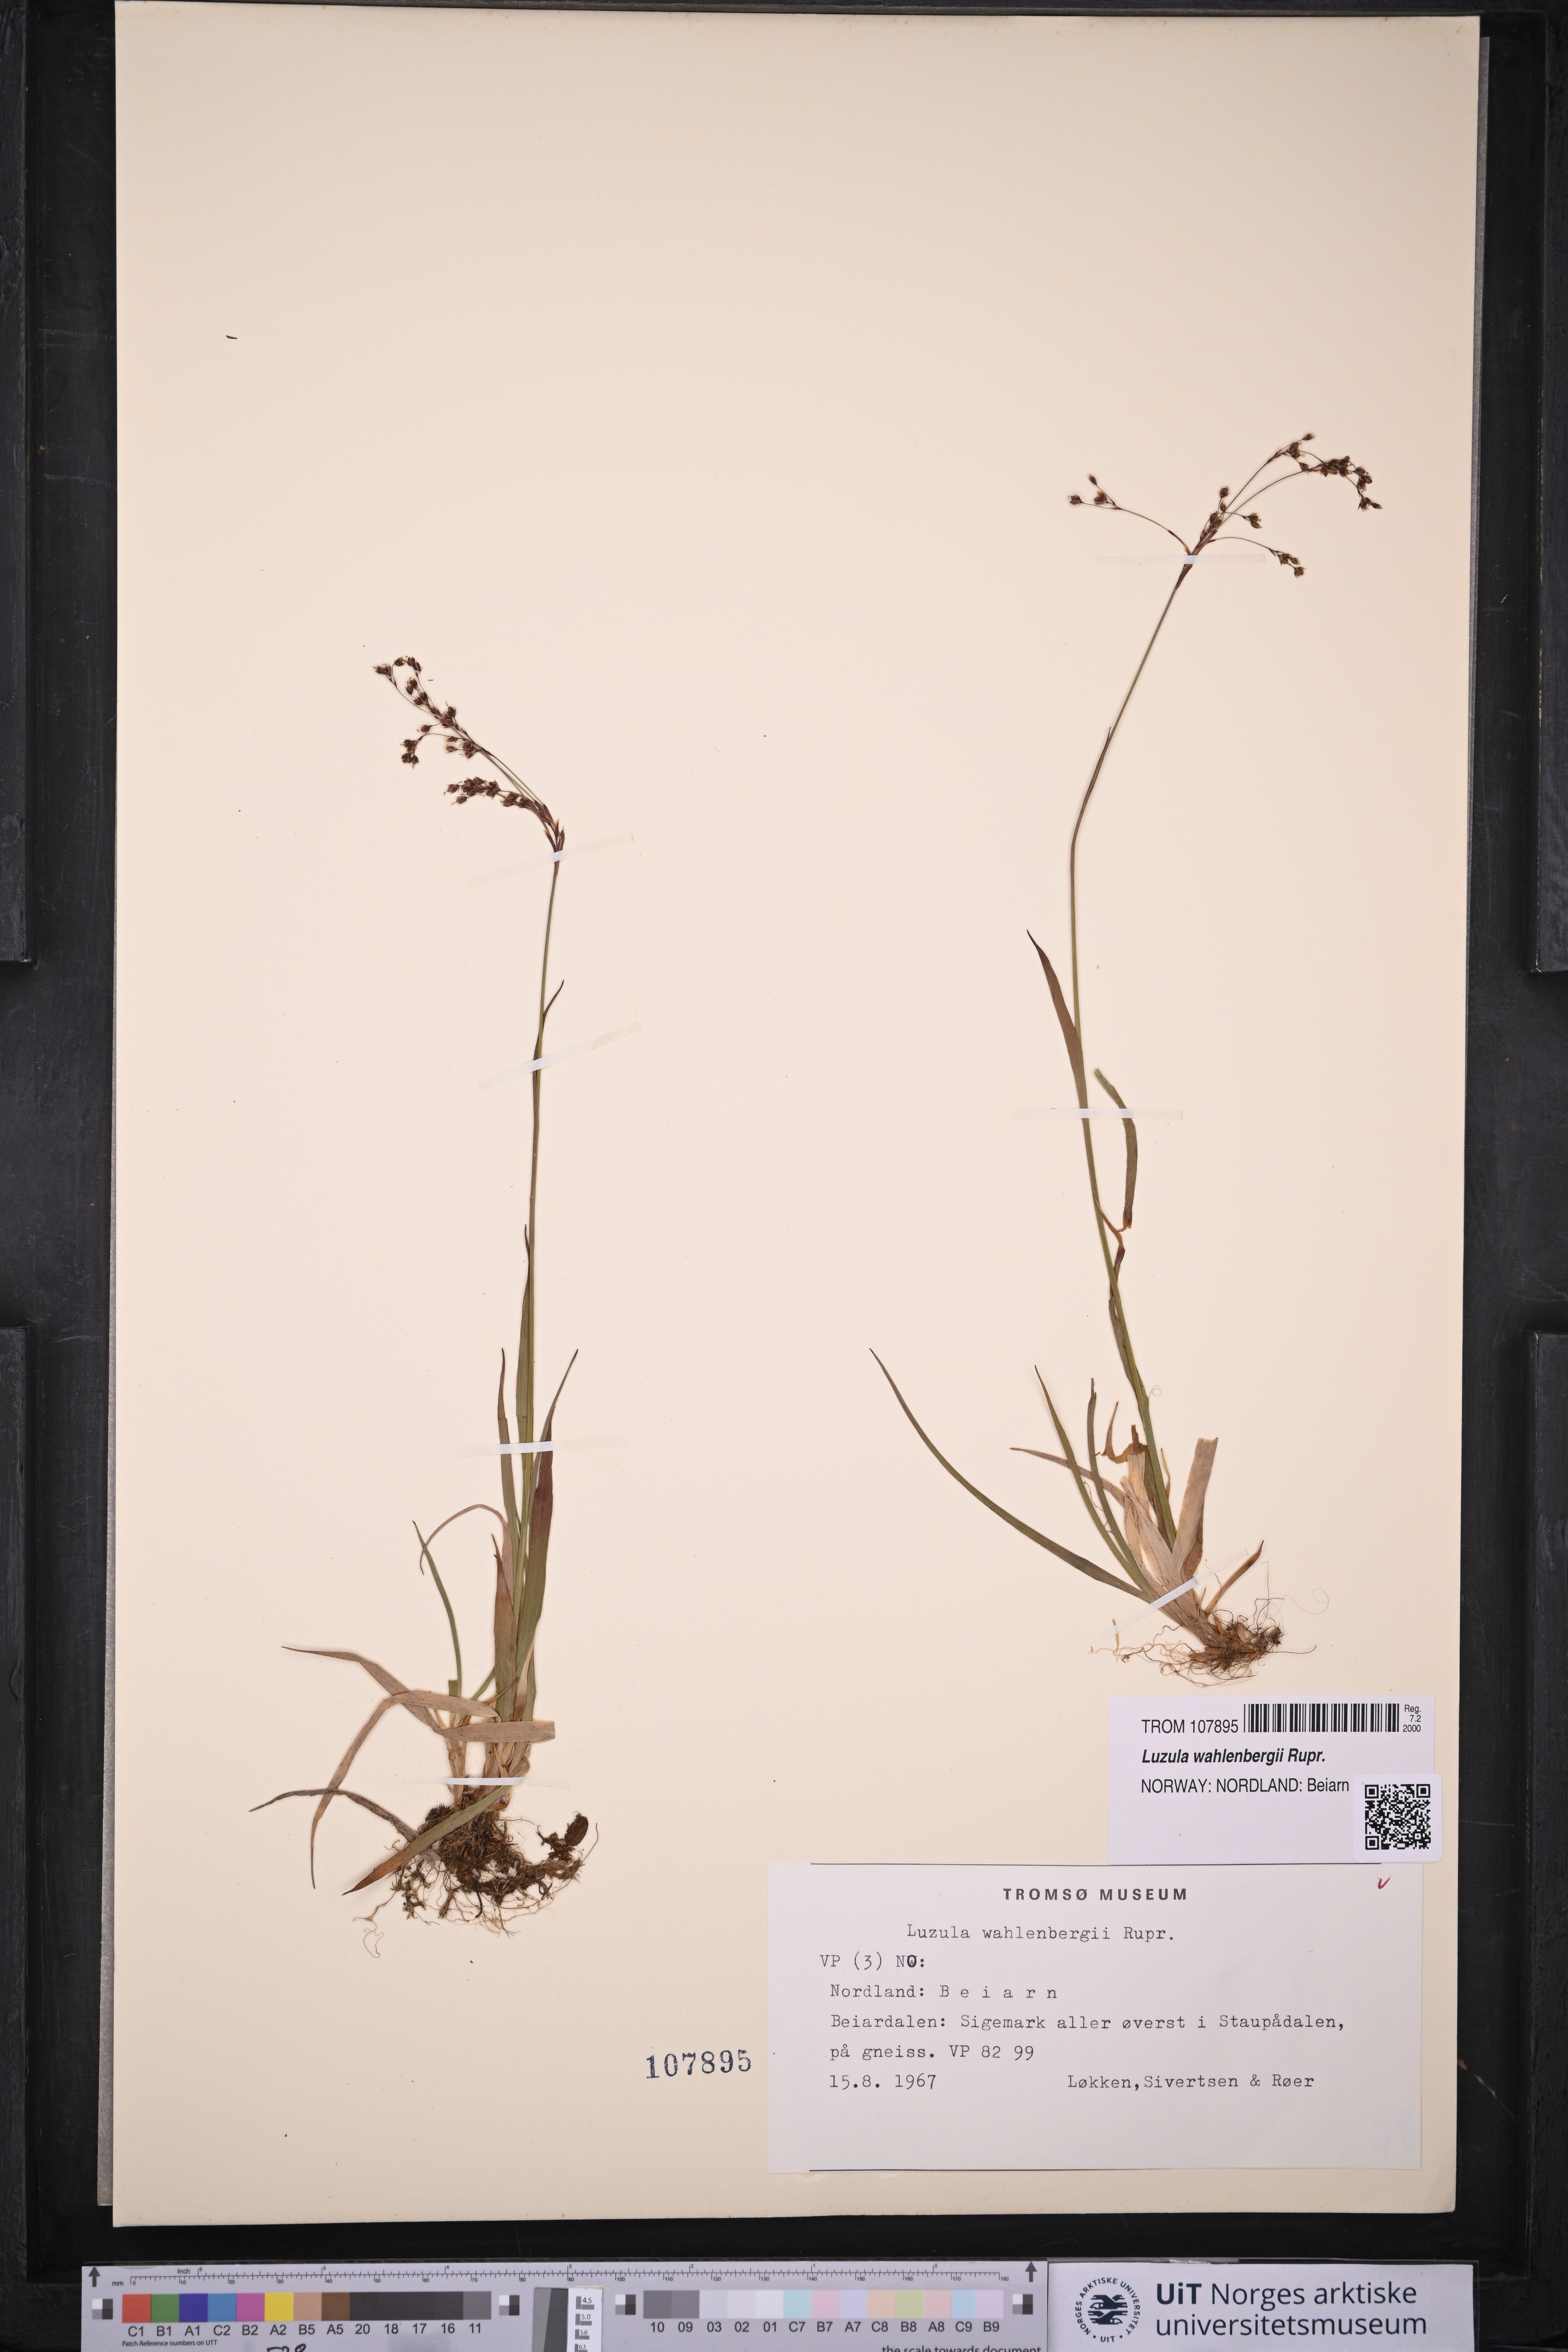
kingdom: Plantae
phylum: Tracheophyta
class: Liliopsida
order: Poales
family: Juncaceae
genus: Luzula
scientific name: Luzula wahlenbergii
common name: Wahlenberg's wood-rush
